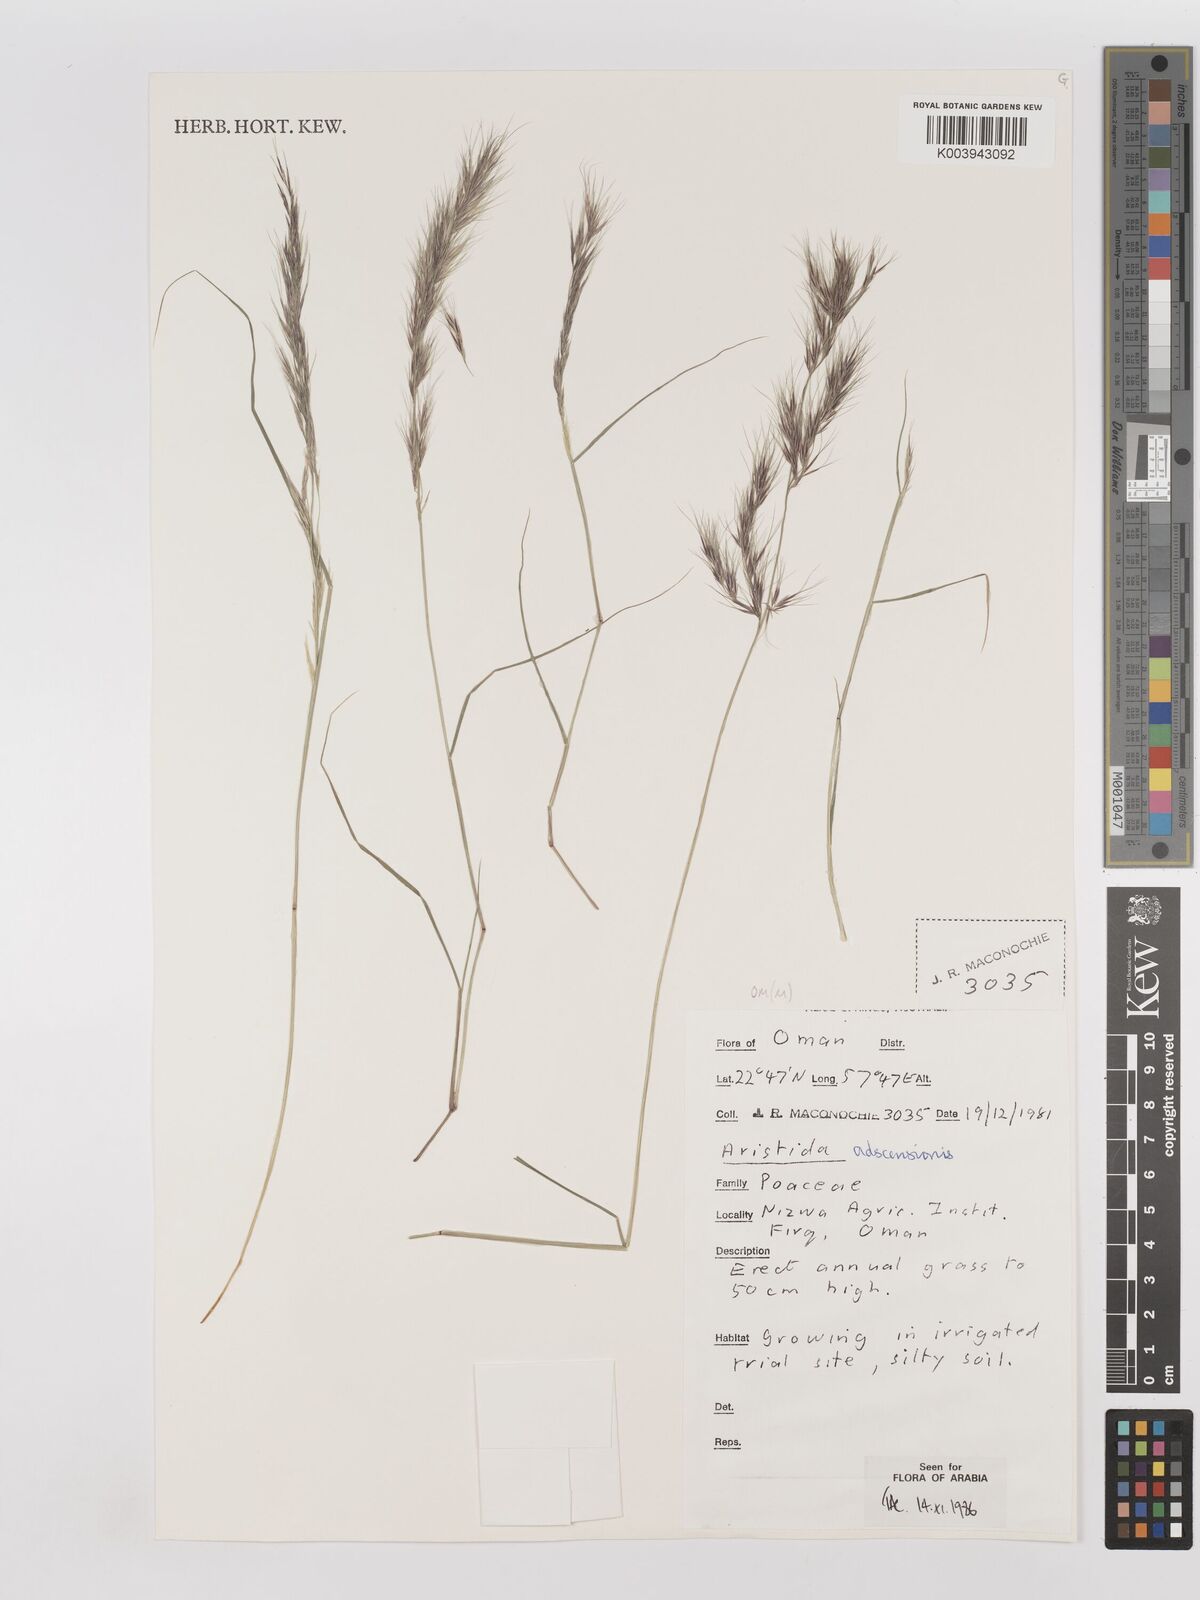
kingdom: Plantae
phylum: Tracheophyta
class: Liliopsida
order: Poales
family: Poaceae
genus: Aristida
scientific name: Aristida adscensionis
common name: Sixweeks threeawn
